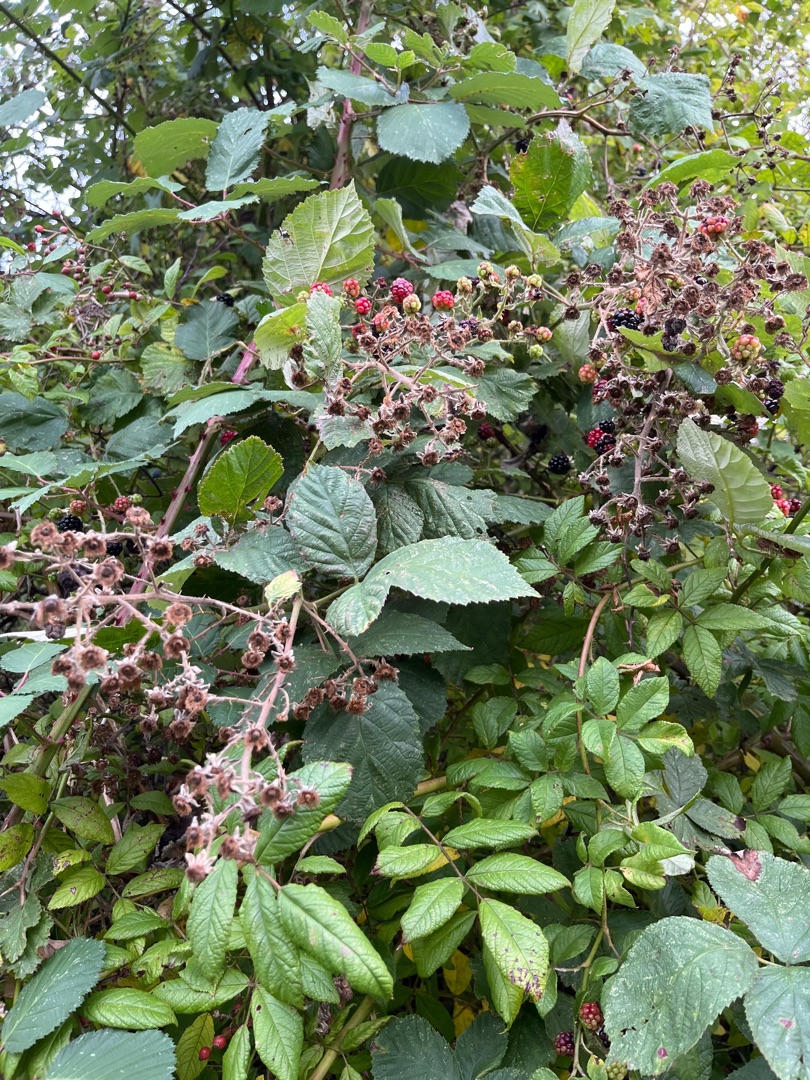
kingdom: Plantae
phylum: Tracheophyta
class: Magnoliopsida
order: Rosales
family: Rosaceae
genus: Rubus
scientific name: Rubus
